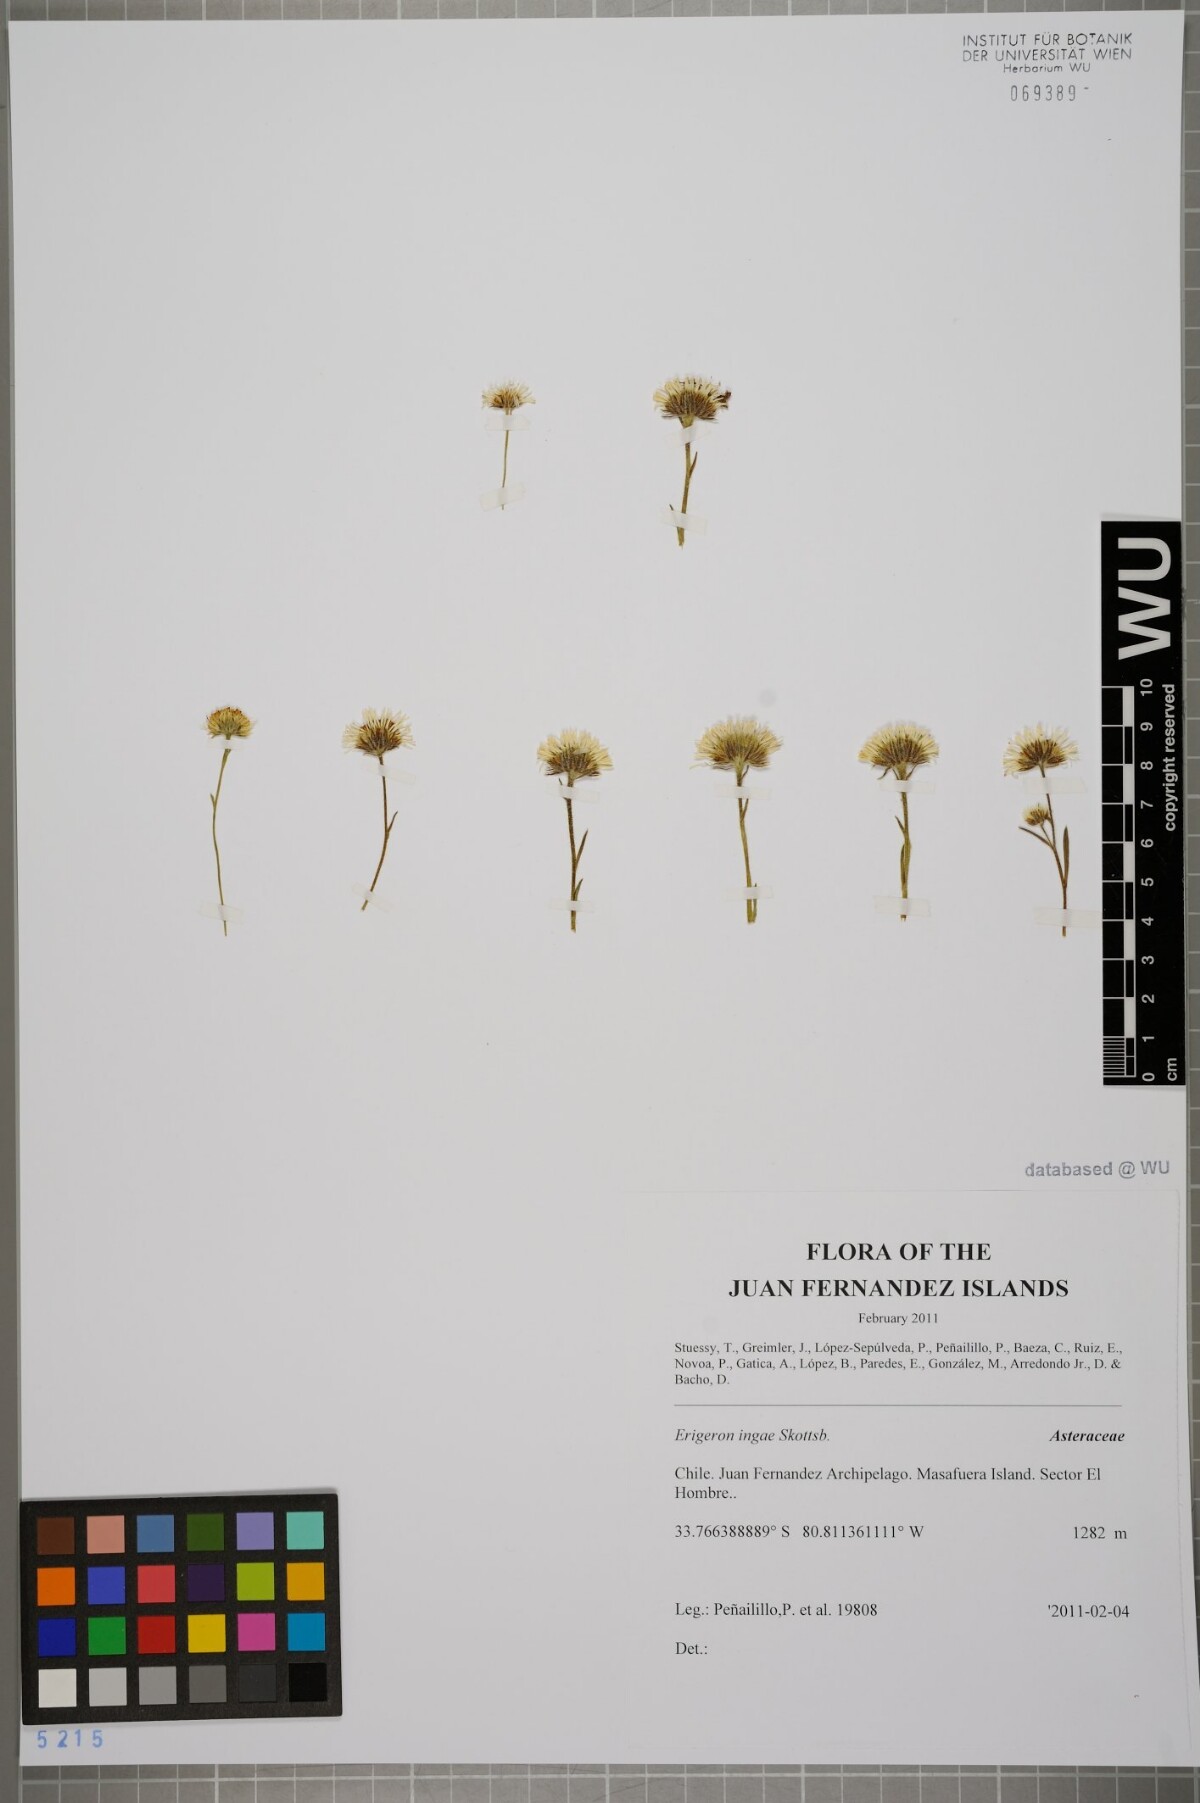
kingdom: Plantae
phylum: Tracheophyta
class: Magnoliopsida
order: Asterales
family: Asteraceae
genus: Erigeron
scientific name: Erigeron ingae
